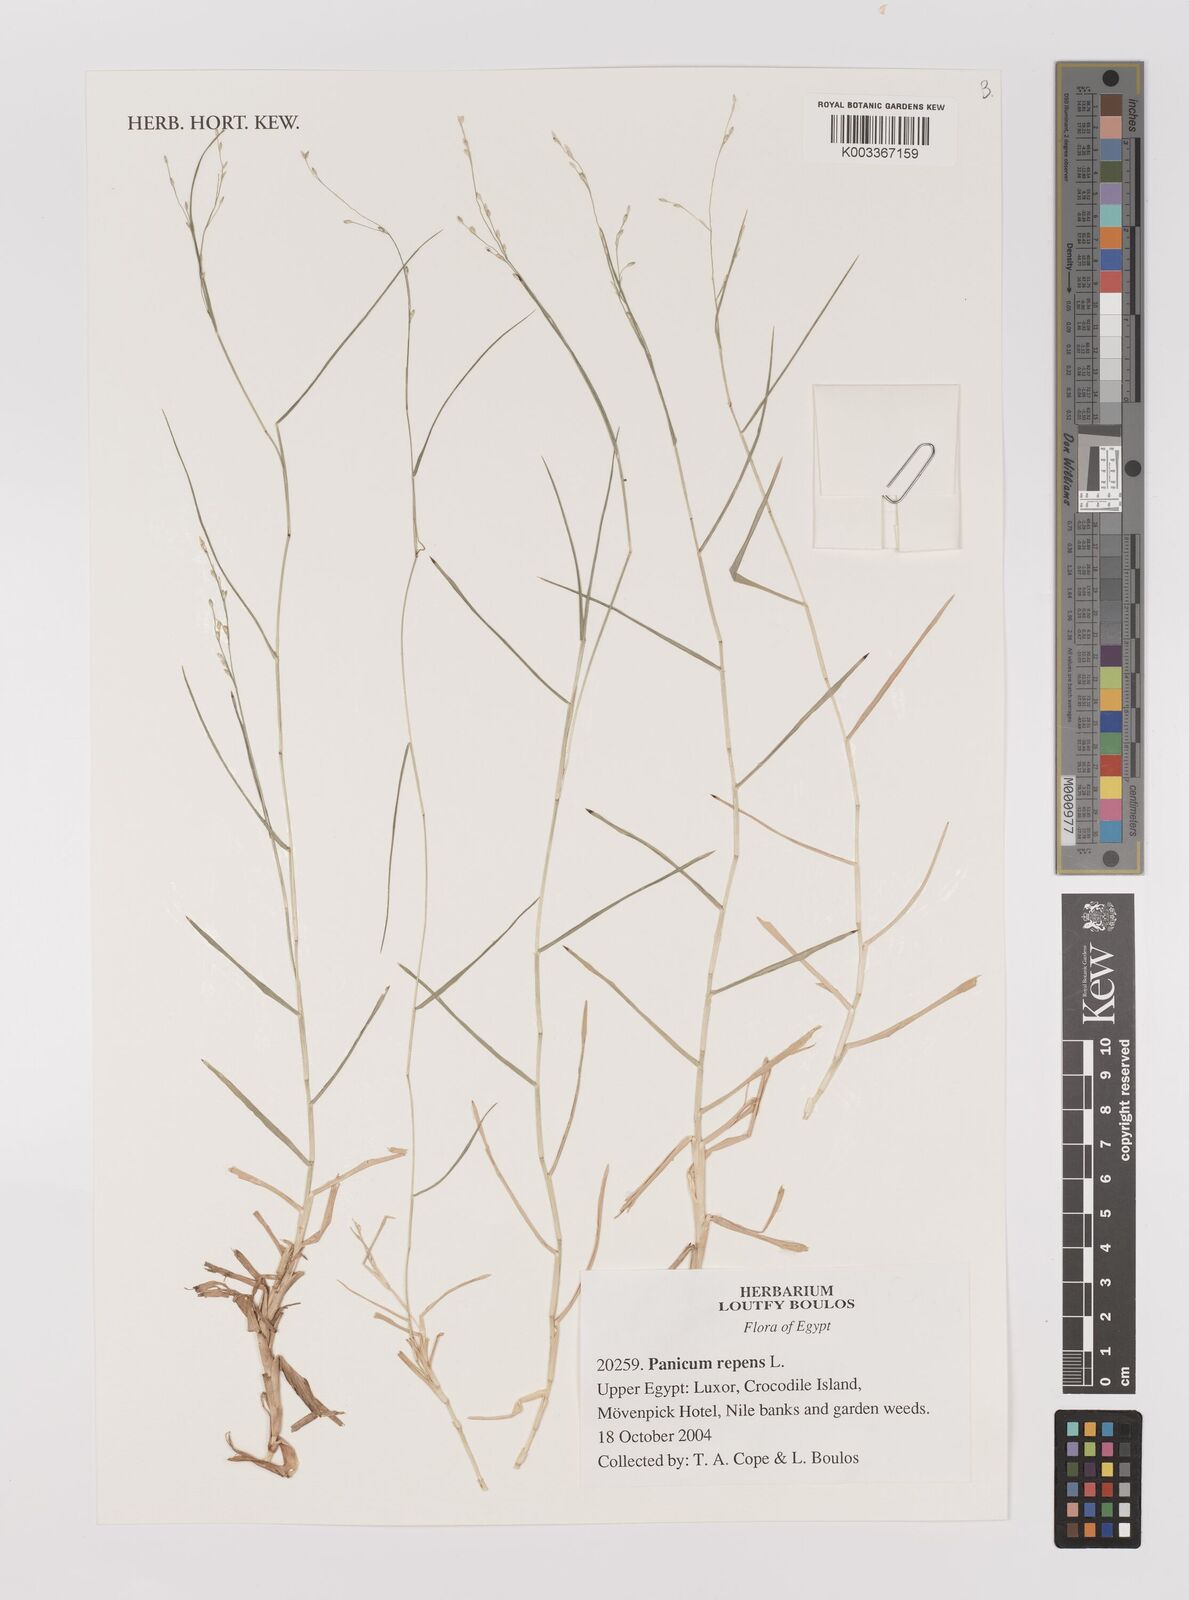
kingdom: Plantae
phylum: Tracheophyta
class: Liliopsida
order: Poales
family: Poaceae
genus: Panicum
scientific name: Panicum repens
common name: Torpedo grass
